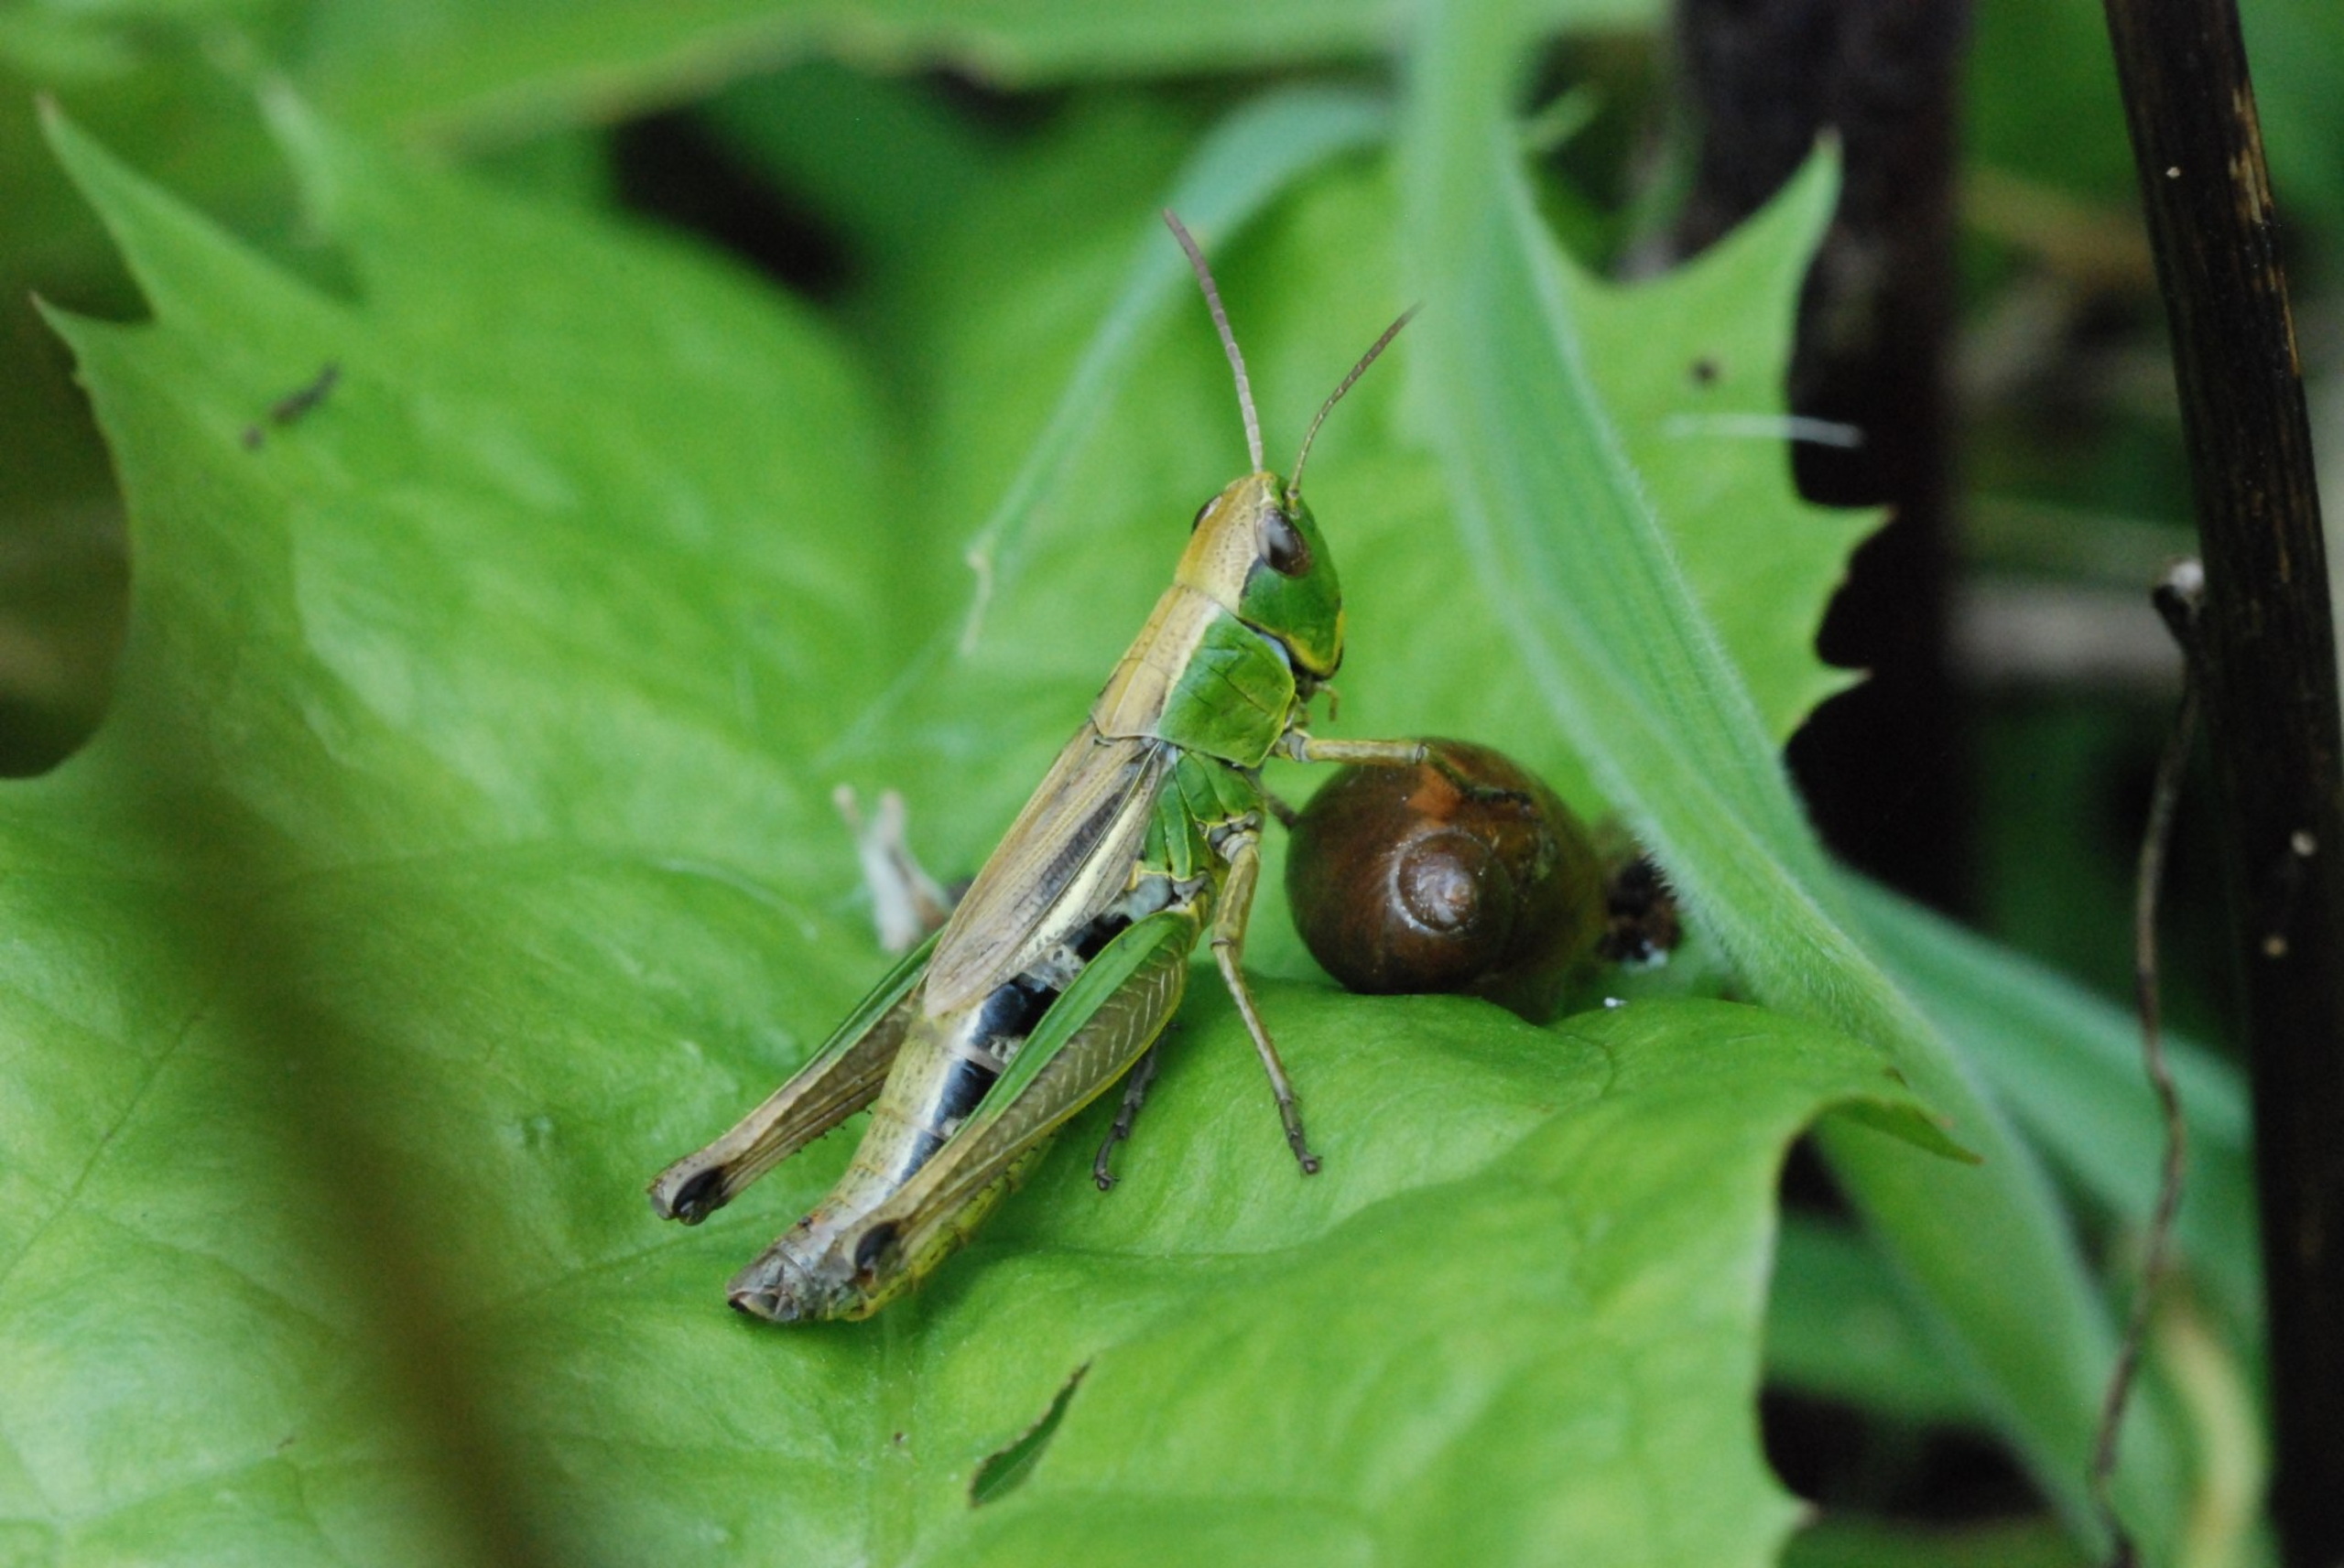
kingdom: Animalia
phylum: Arthropoda
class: Insecta
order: Orthoptera
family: Acrididae
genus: Pseudochorthippus
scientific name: Pseudochorthippus parallelus
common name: Enggræshoppe
